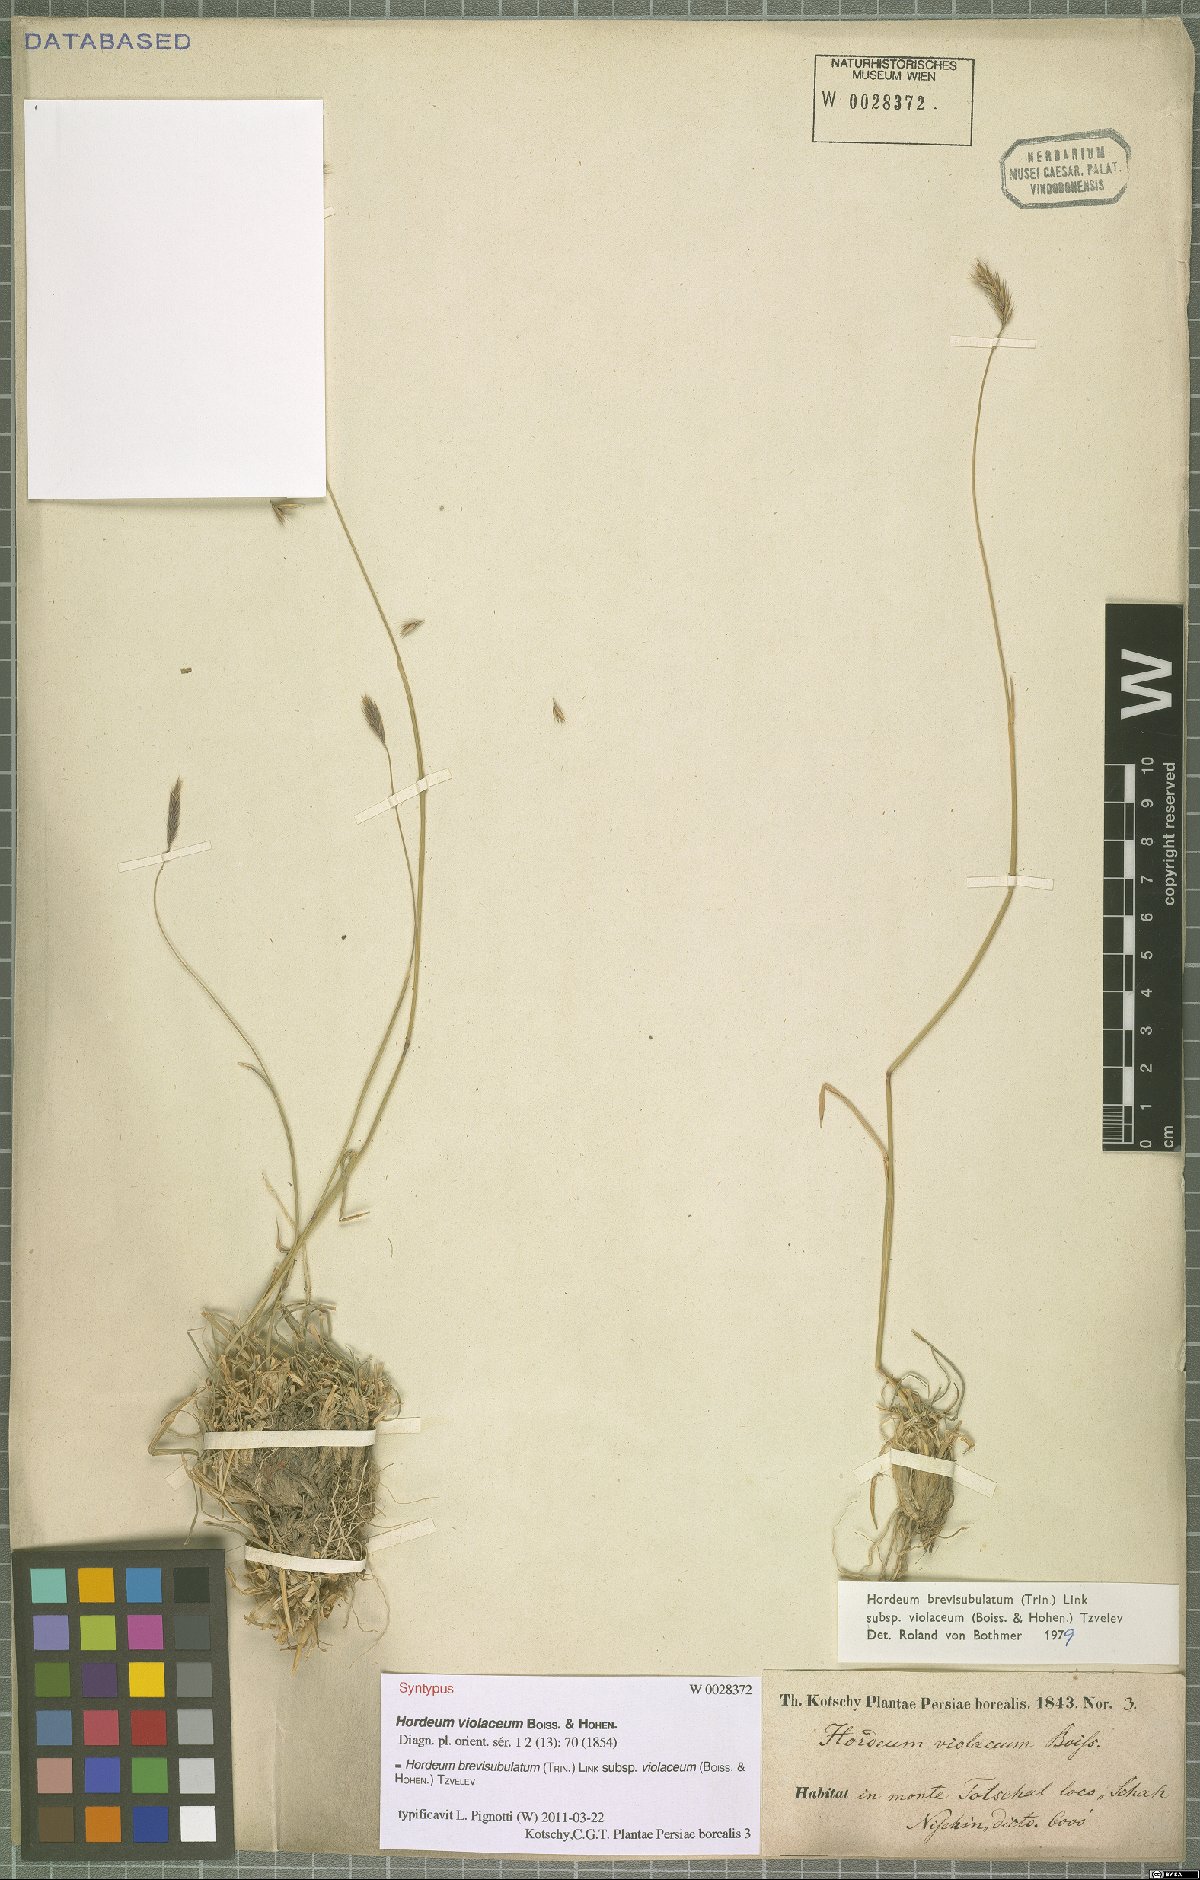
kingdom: Plantae
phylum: Tracheophyta
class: Liliopsida
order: Poales
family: Poaceae
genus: Hordeum
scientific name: Hordeum brevisubulatum
